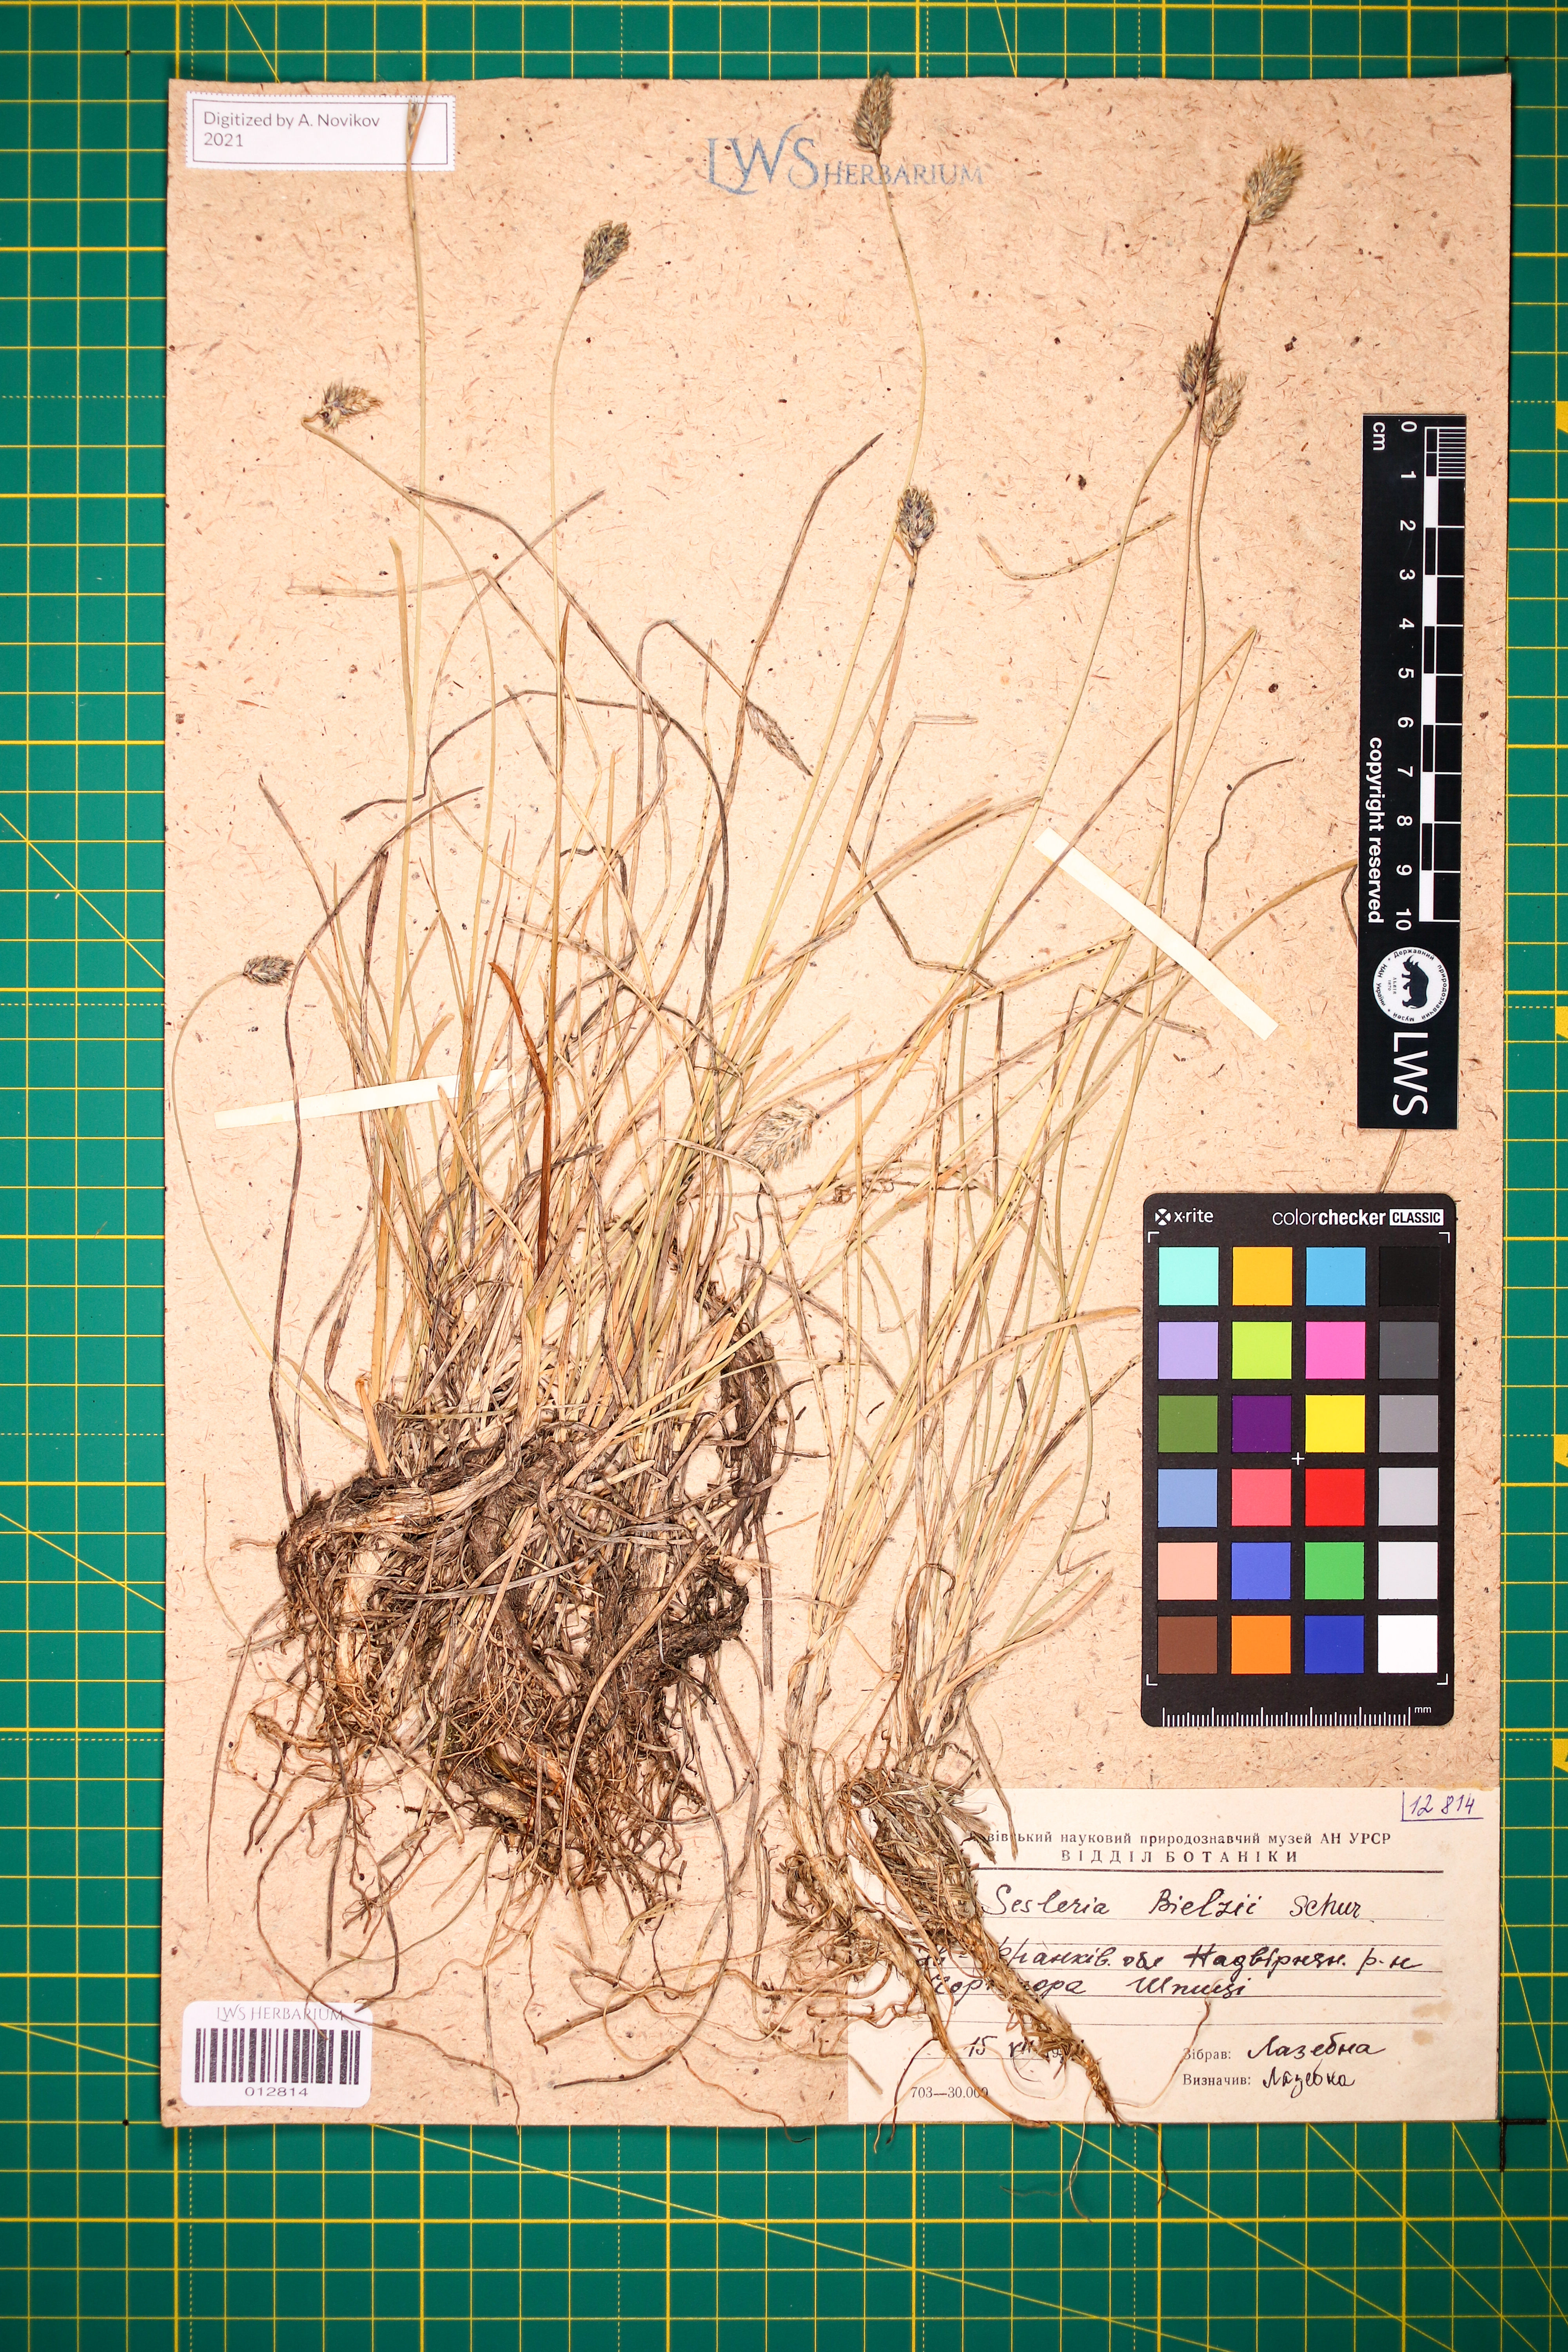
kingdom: Plantae
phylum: Tracheophyta
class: Liliopsida
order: Poales
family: Poaceae
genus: Sesleria
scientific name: Sesleria bielzii
